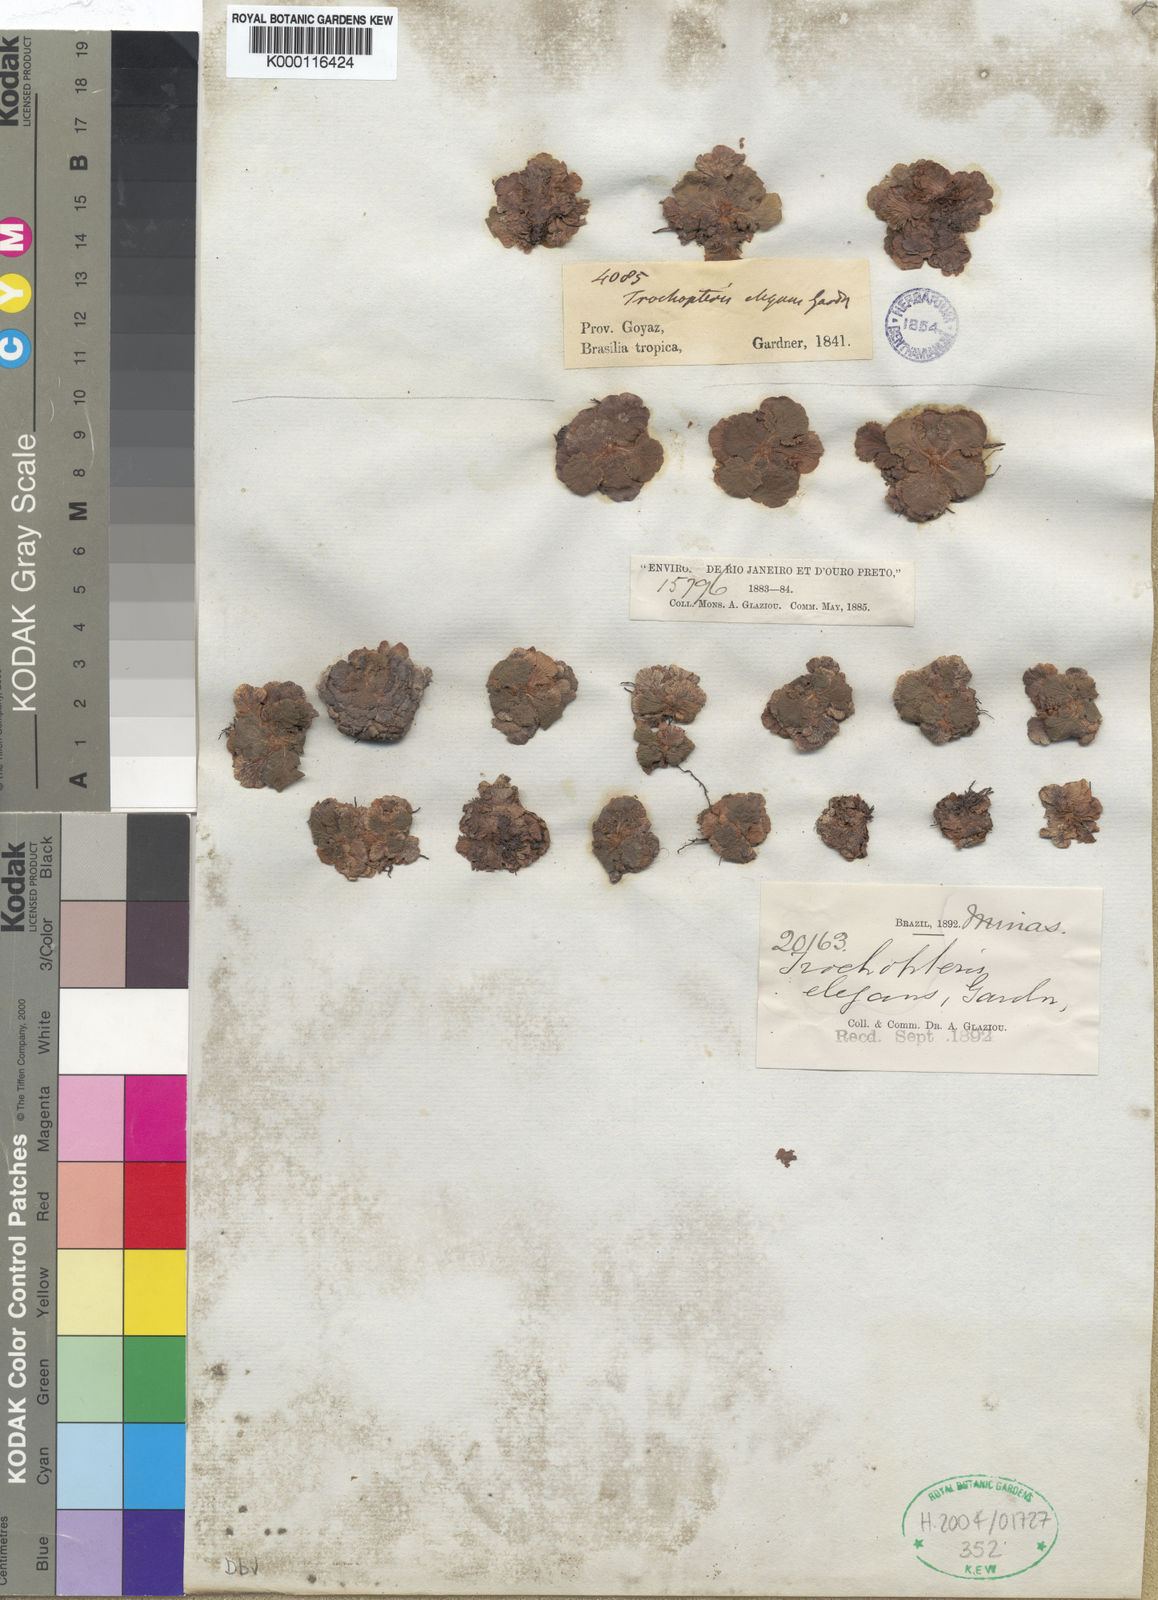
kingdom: Plantae
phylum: Tracheophyta
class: Polypodiopsida
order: Schizaeales
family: Anemiaceae
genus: Anemia
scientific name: Anemia
